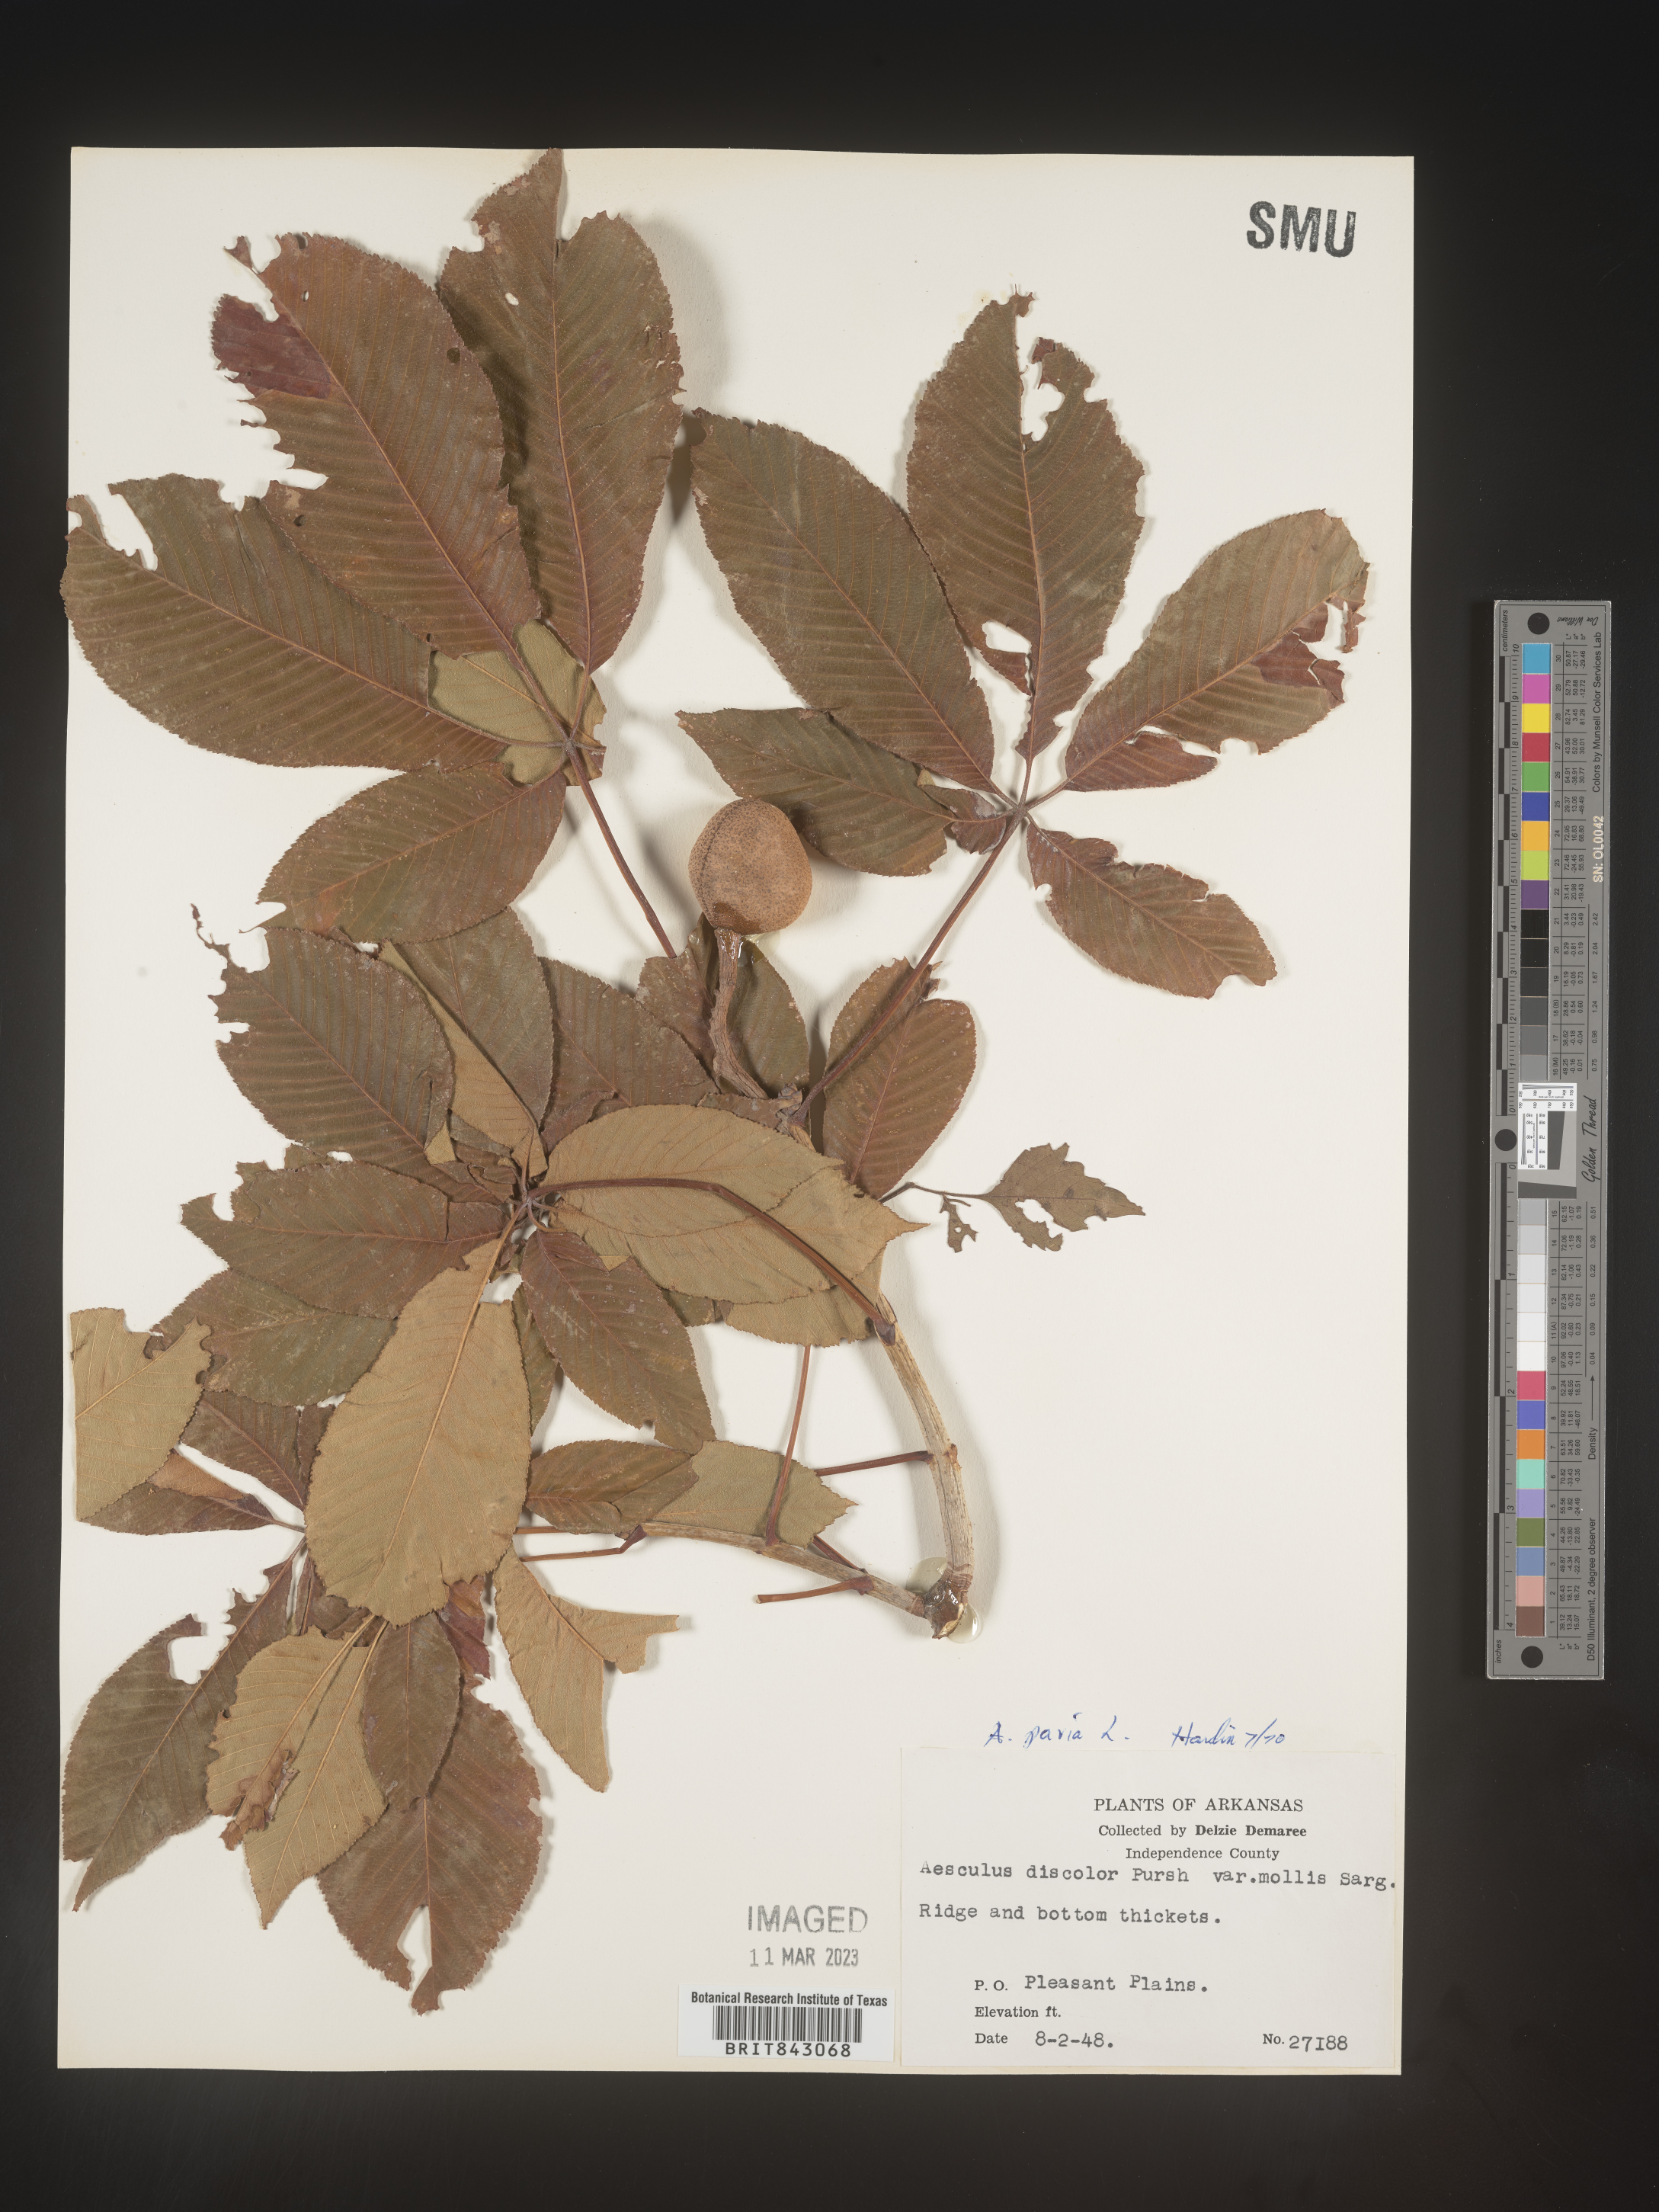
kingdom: Plantae
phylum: Tracheophyta
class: Magnoliopsida
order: Sapindales
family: Sapindaceae
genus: Aesculus
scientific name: Aesculus pavia
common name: Red buckeye
